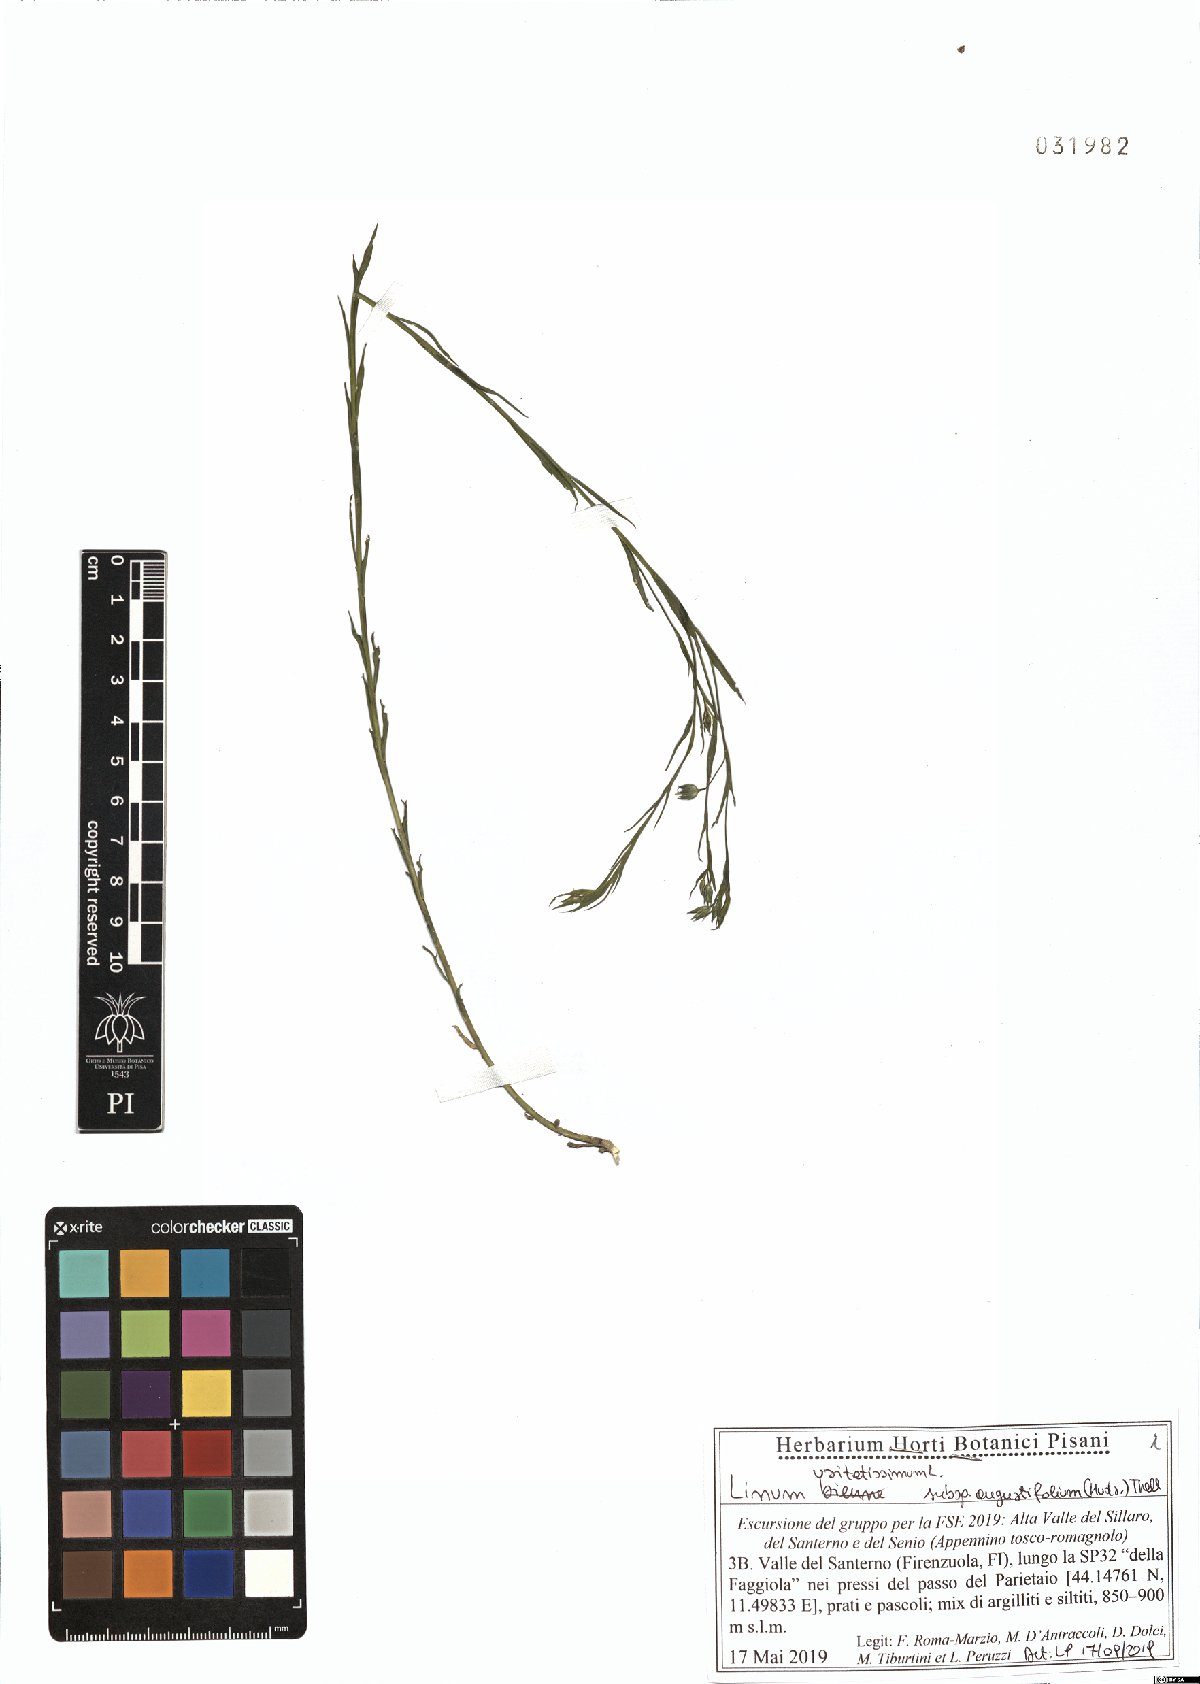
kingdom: Plantae
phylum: Tracheophyta
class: Magnoliopsida
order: Malpighiales
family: Linaceae
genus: Linum
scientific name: Linum bienne
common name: Pale flax
